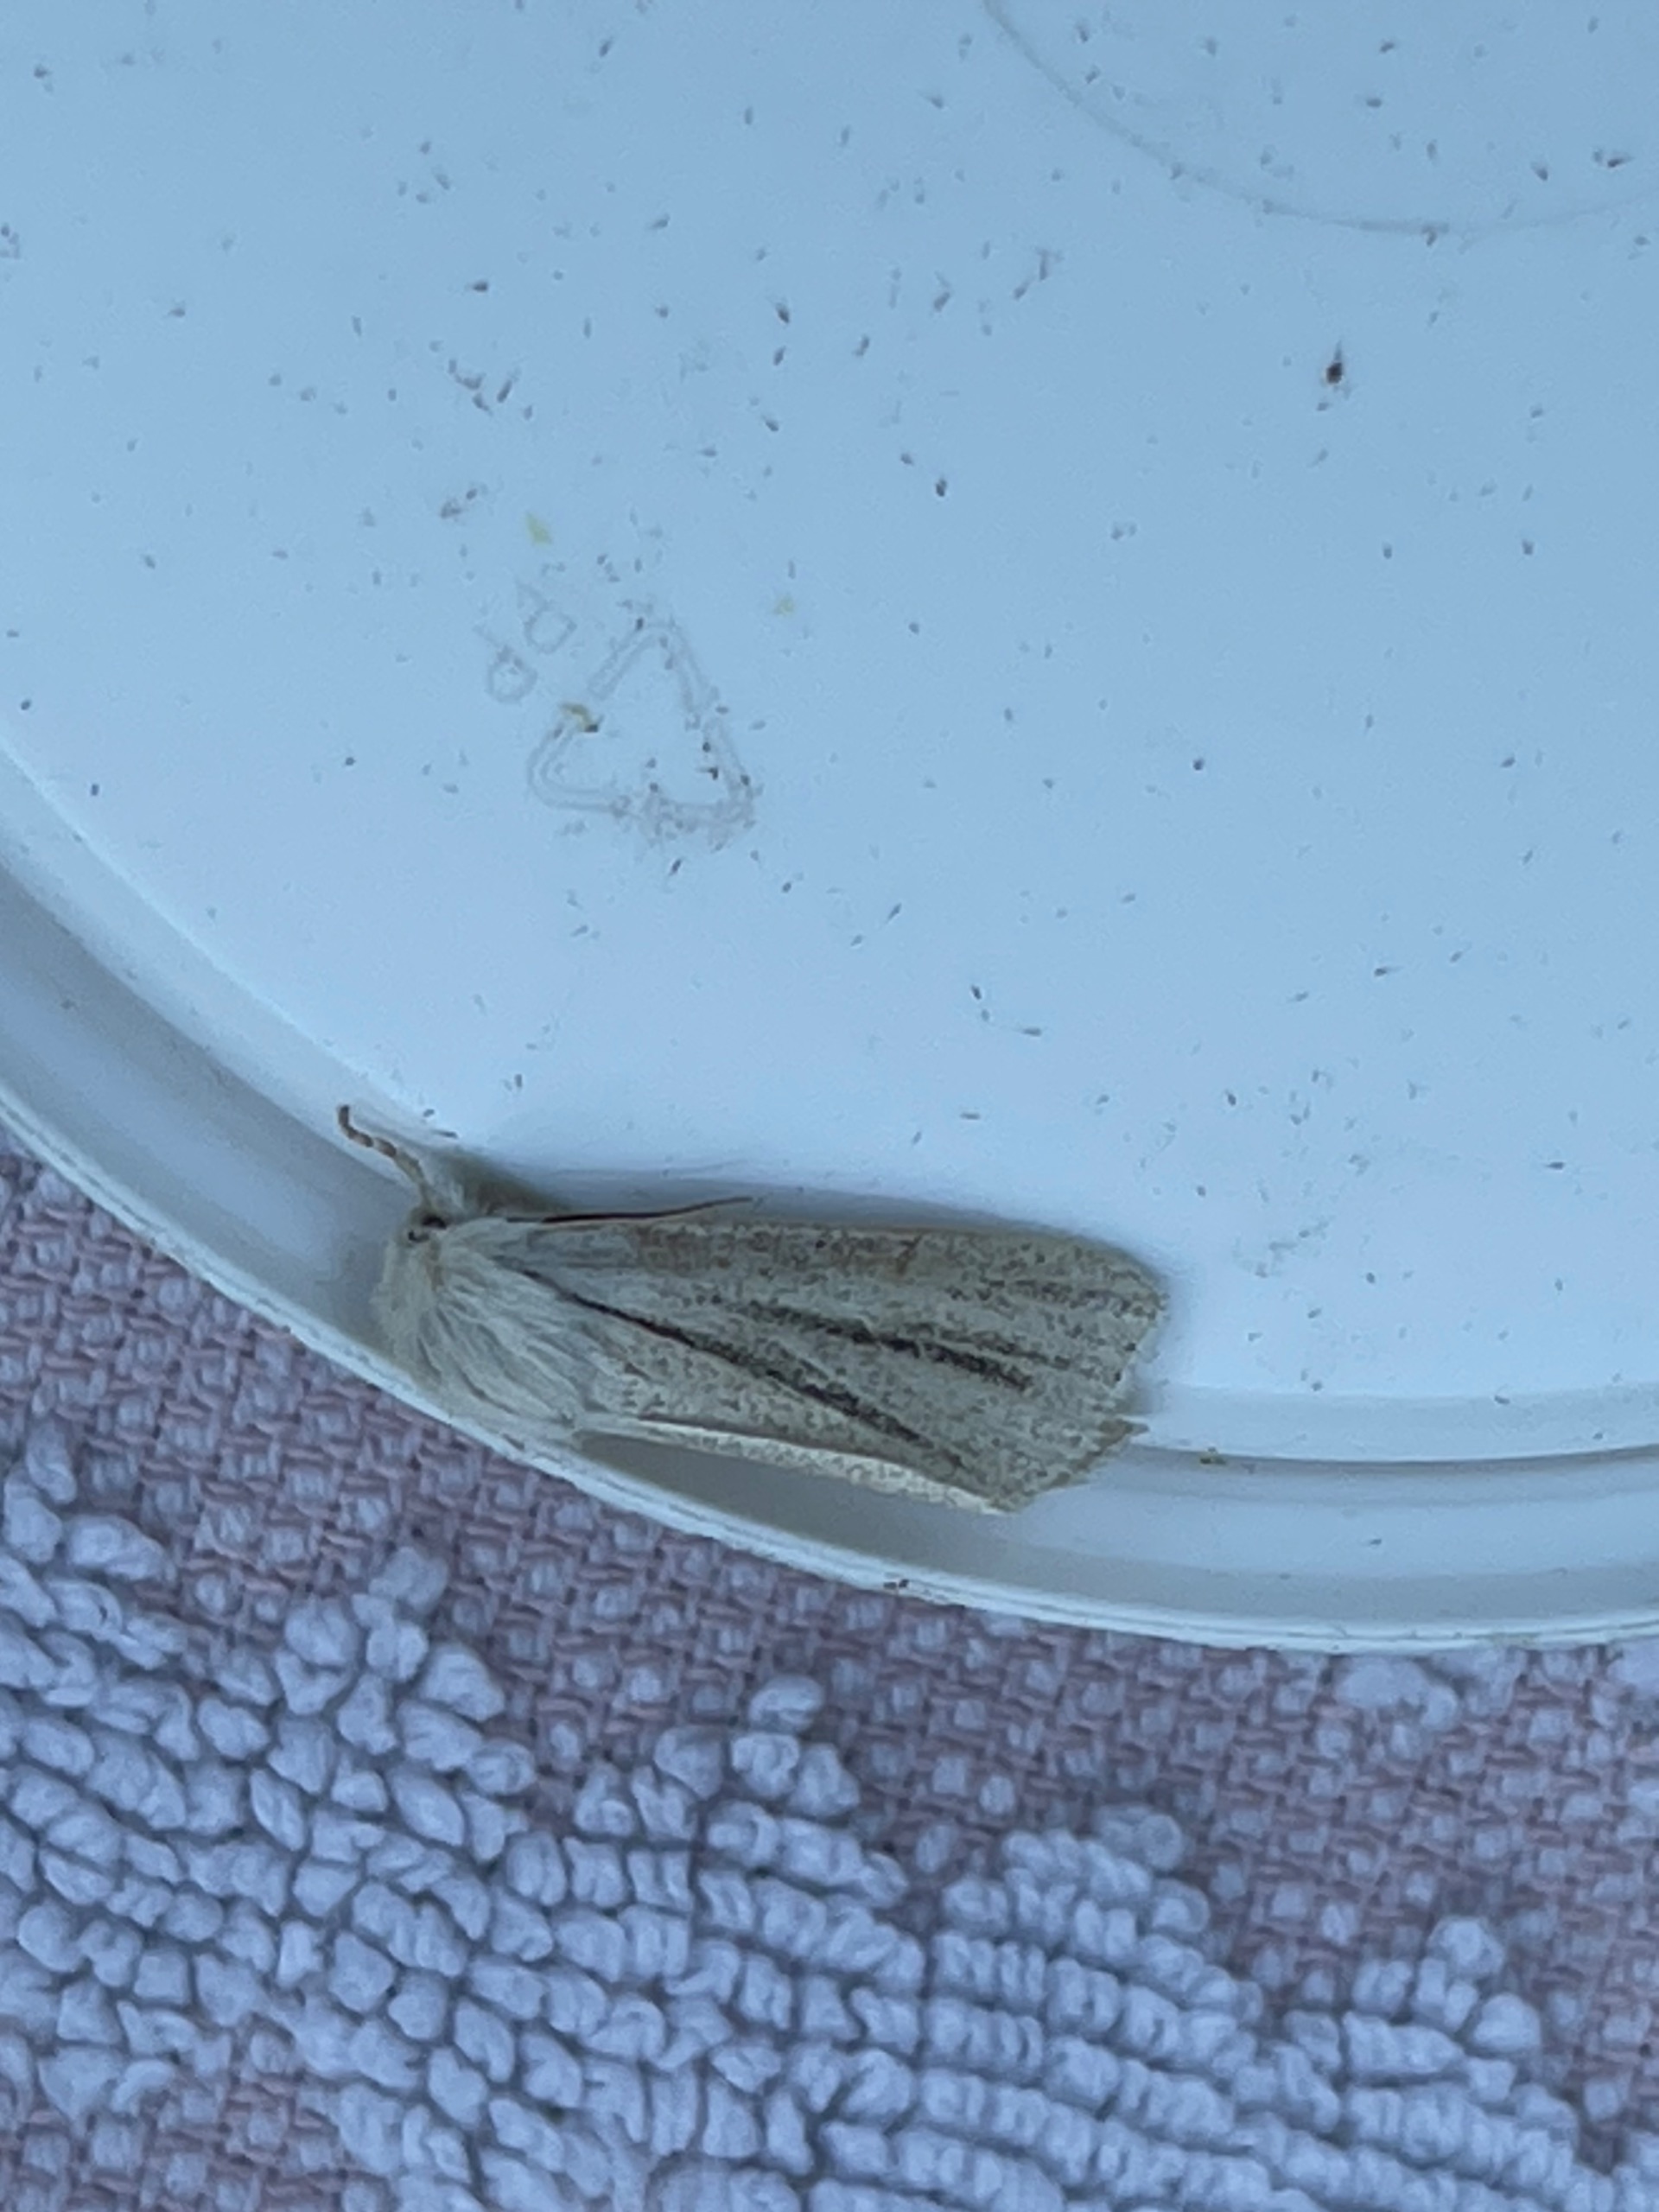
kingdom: Animalia
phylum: Arthropoda
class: Insecta
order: Lepidoptera
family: Noctuidae
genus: Simyra
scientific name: Simyra albovenosa
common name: Hvidstrenget-pelsugle
